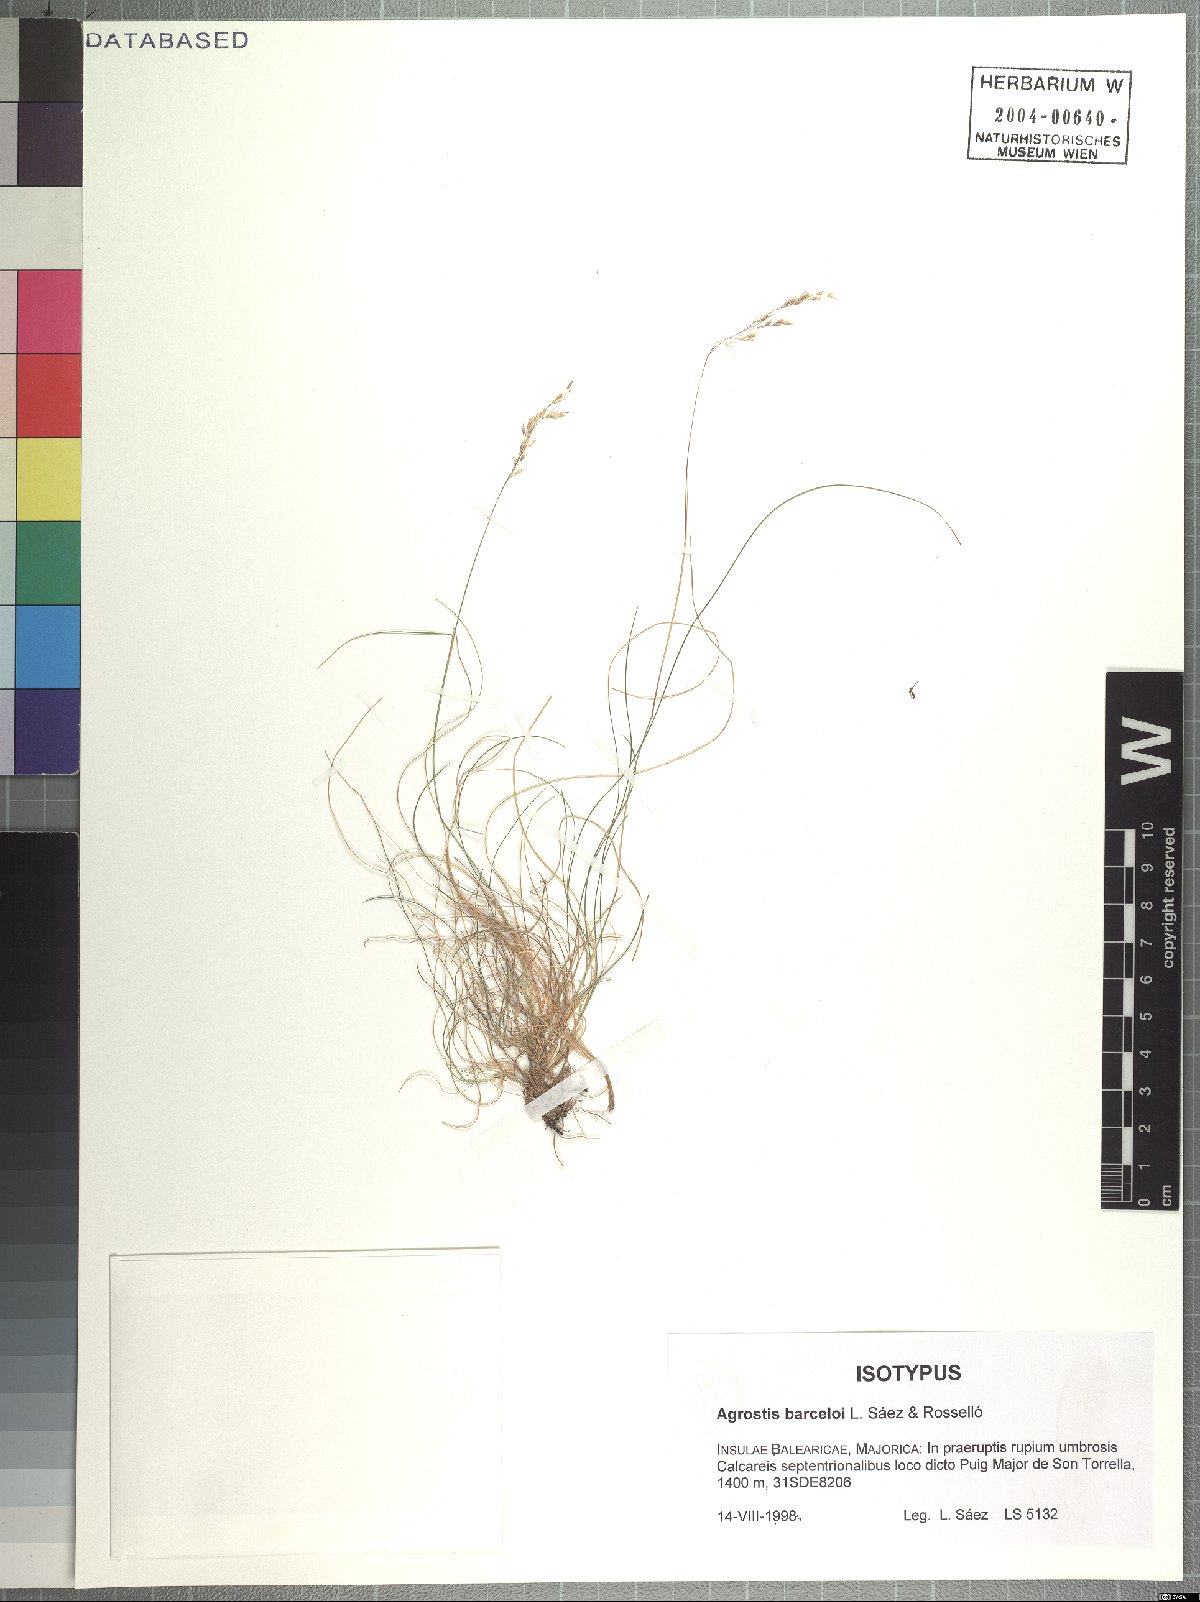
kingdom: Plantae
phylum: Tracheophyta
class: Liliopsida
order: Poales
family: Poaceae
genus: Alpagrostis
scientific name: Alpagrostis barceloi
